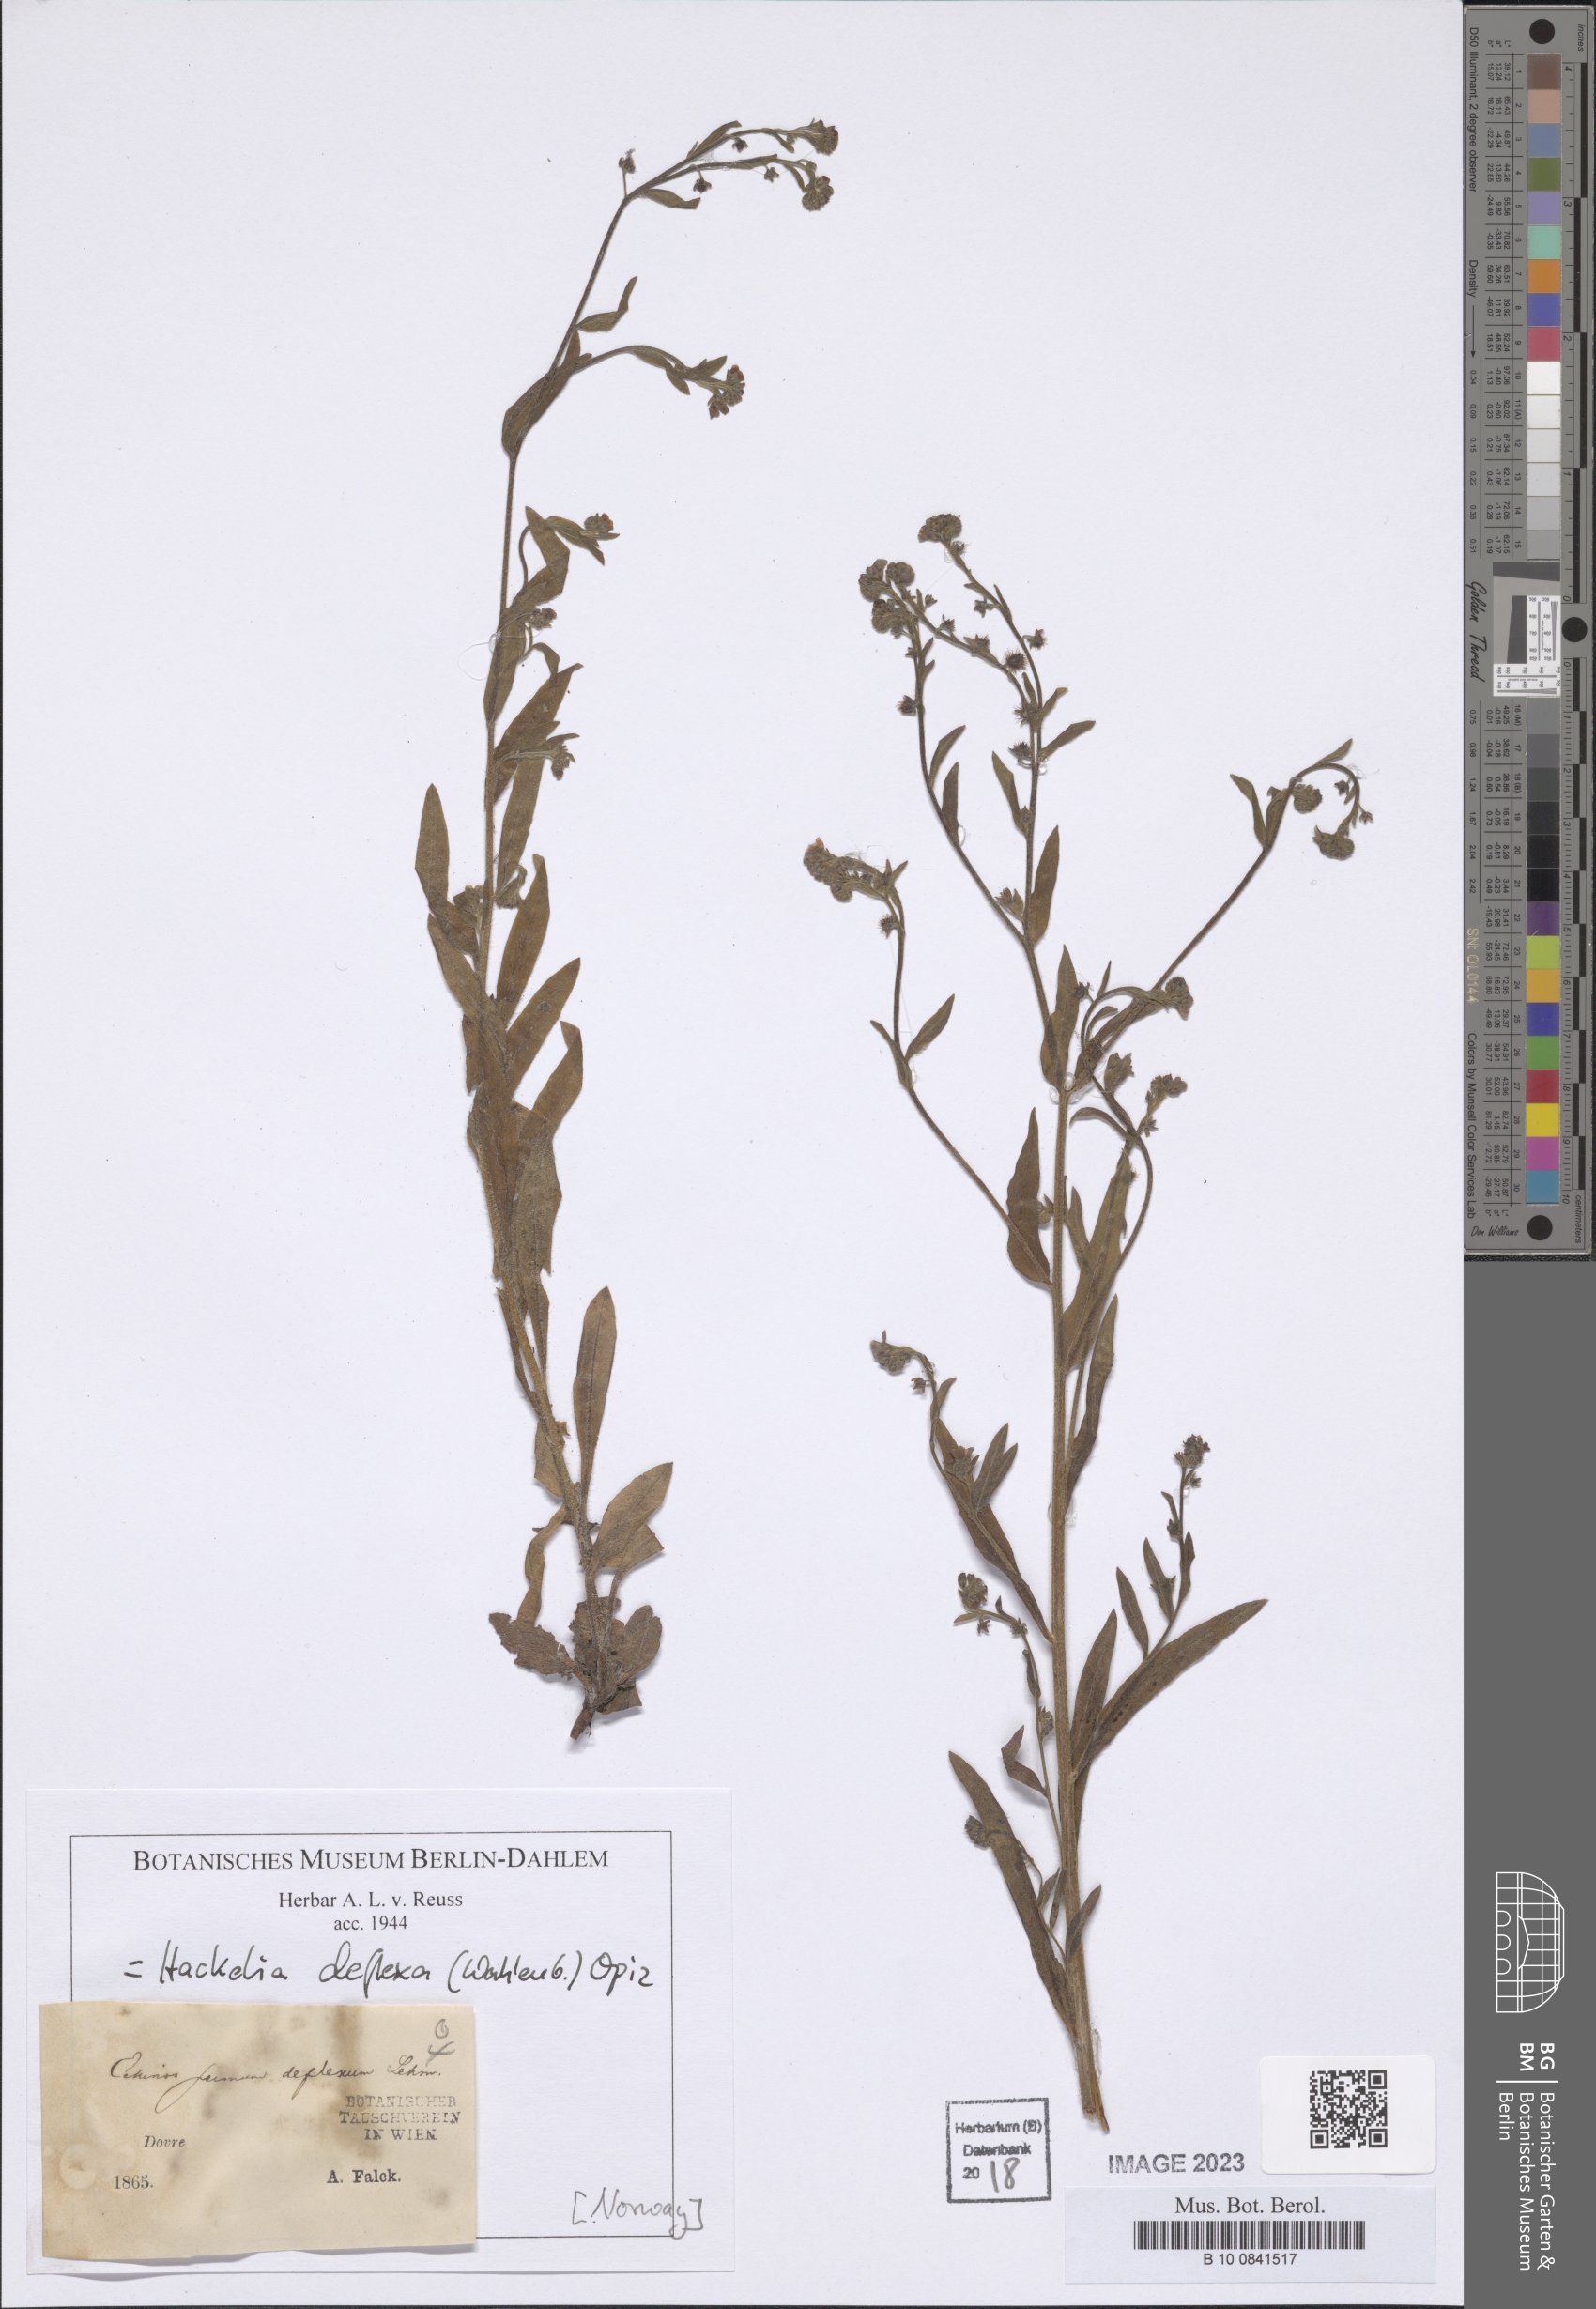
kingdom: Plantae
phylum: Tracheophyta
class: Magnoliopsida
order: Boraginales
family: Boraginaceae
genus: Hackelia
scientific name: Hackelia deflexa
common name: Nodding stickseed
